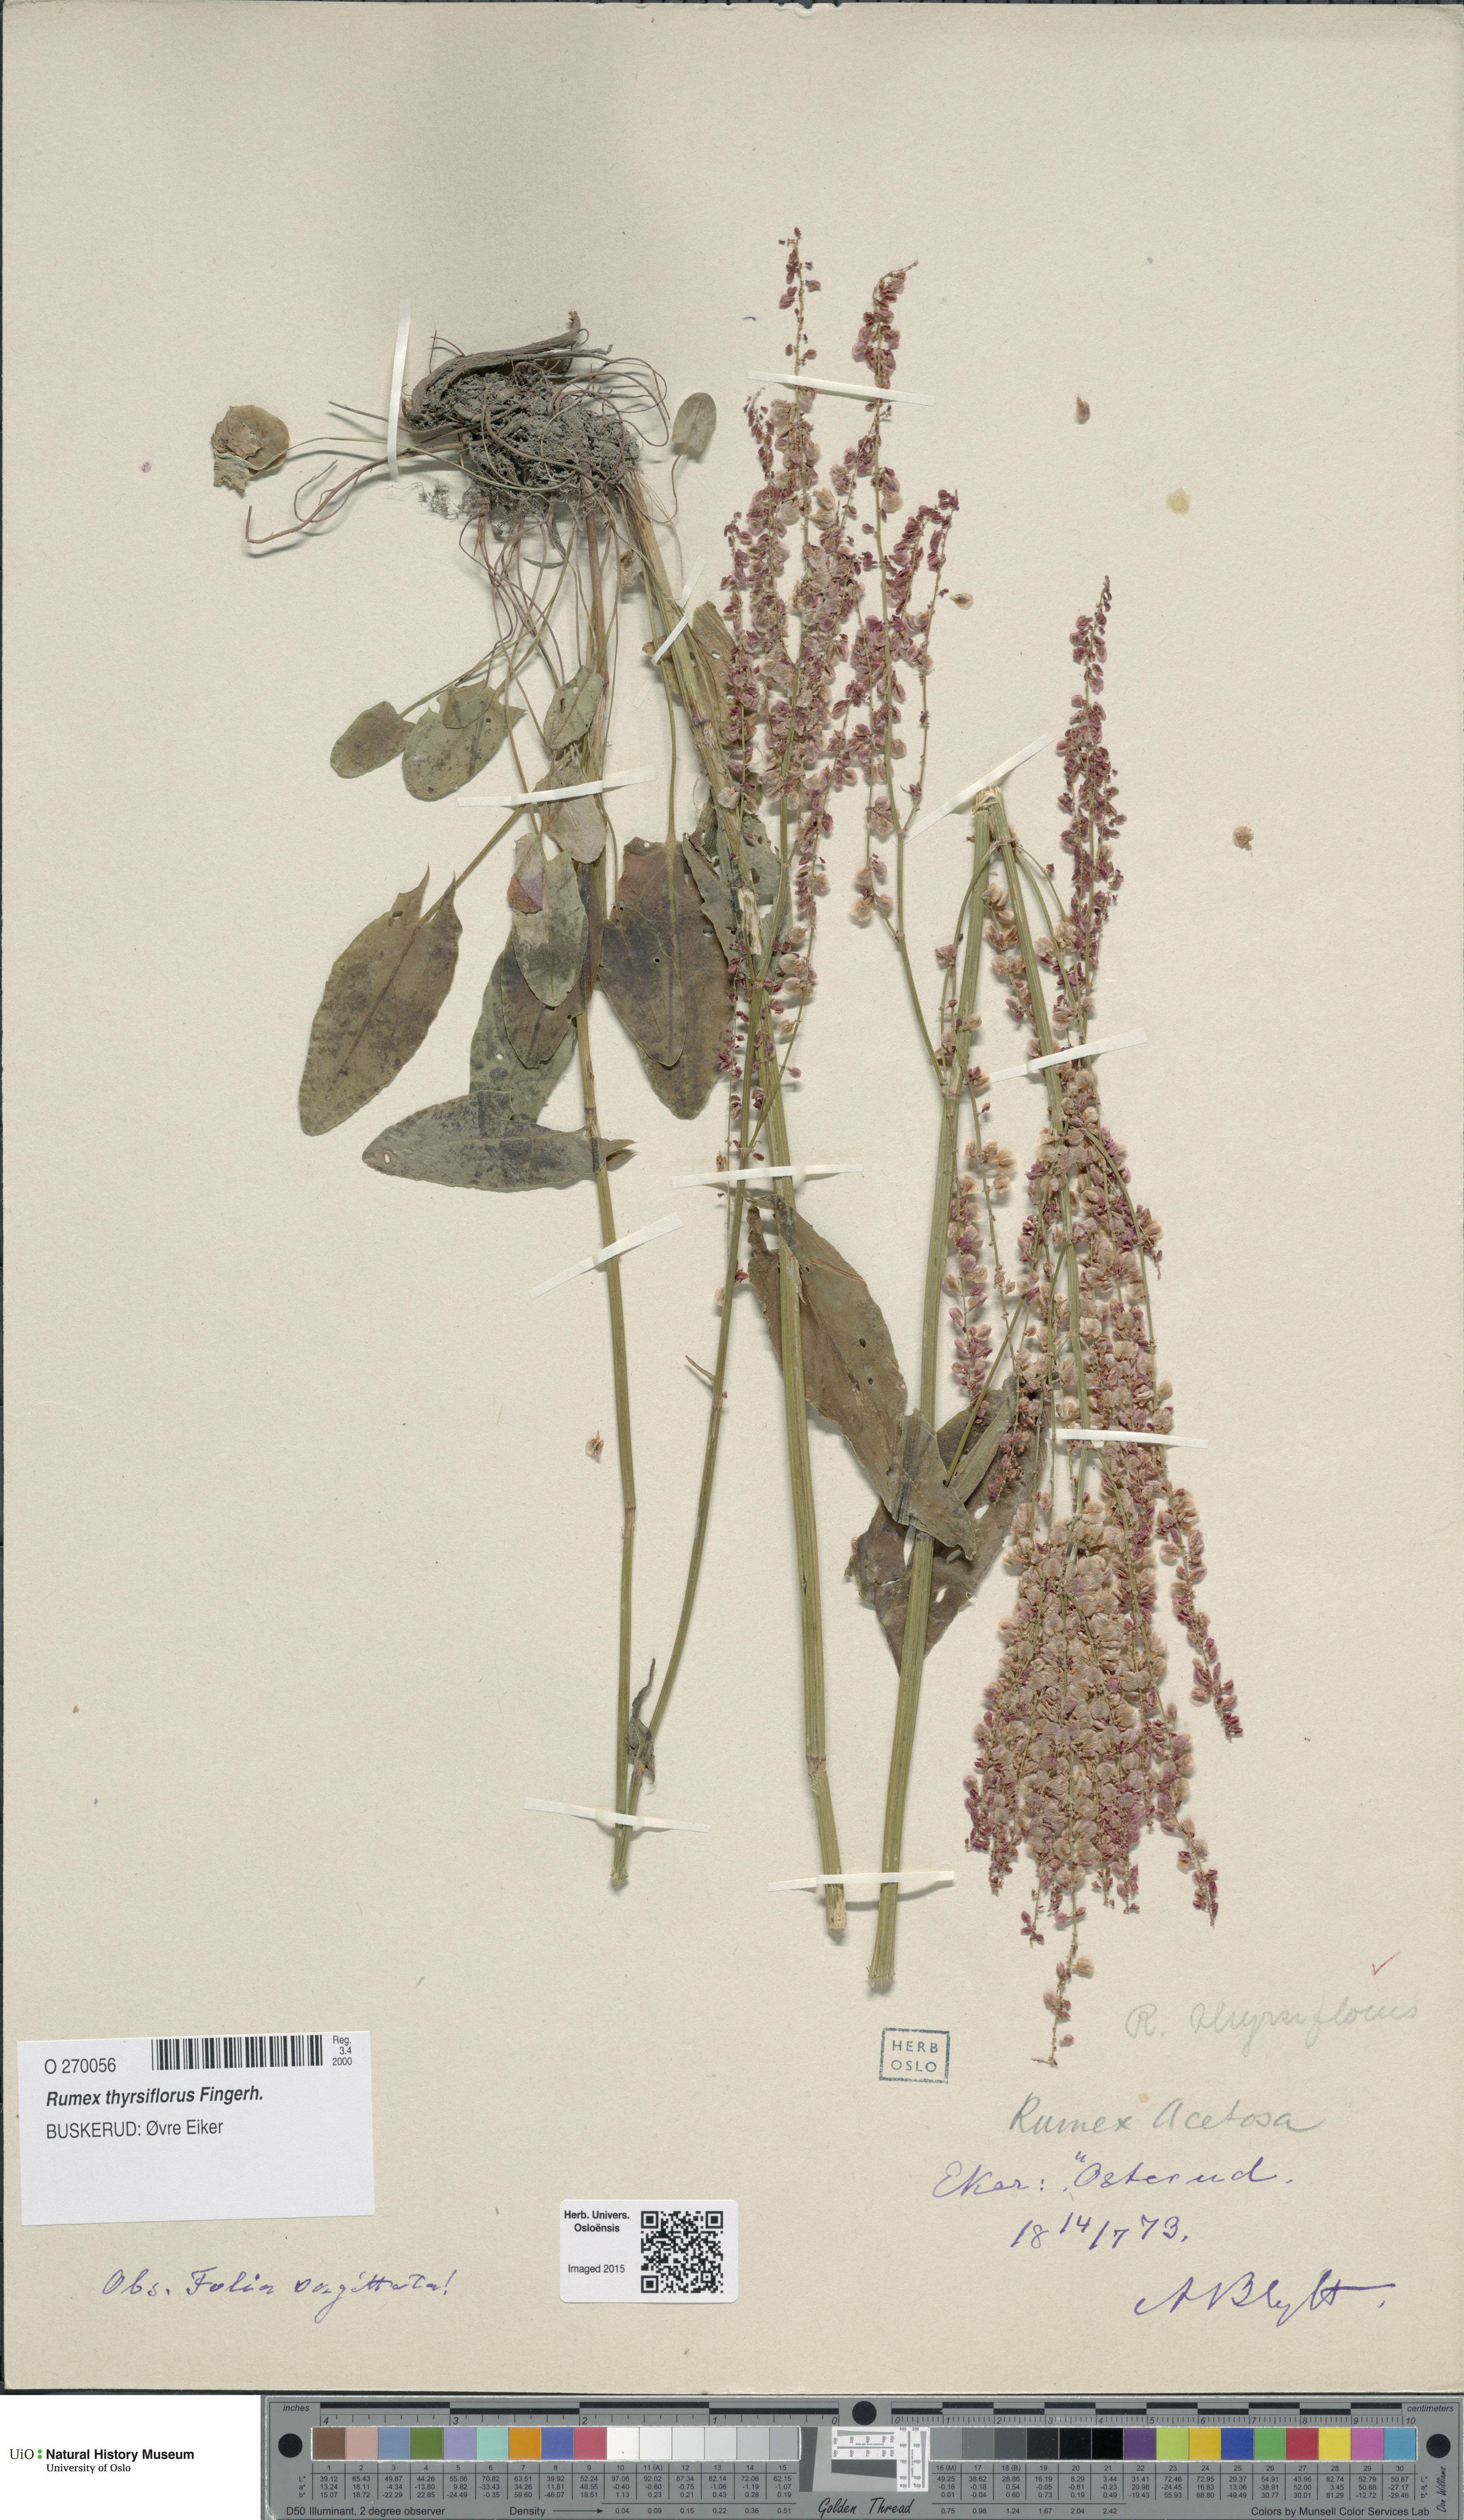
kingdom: Plantae
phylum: Tracheophyta
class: Magnoliopsida
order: Caryophyllales
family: Polygonaceae
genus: Rumex
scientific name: Rumex thyrsiflorus
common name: Garden sorrel
